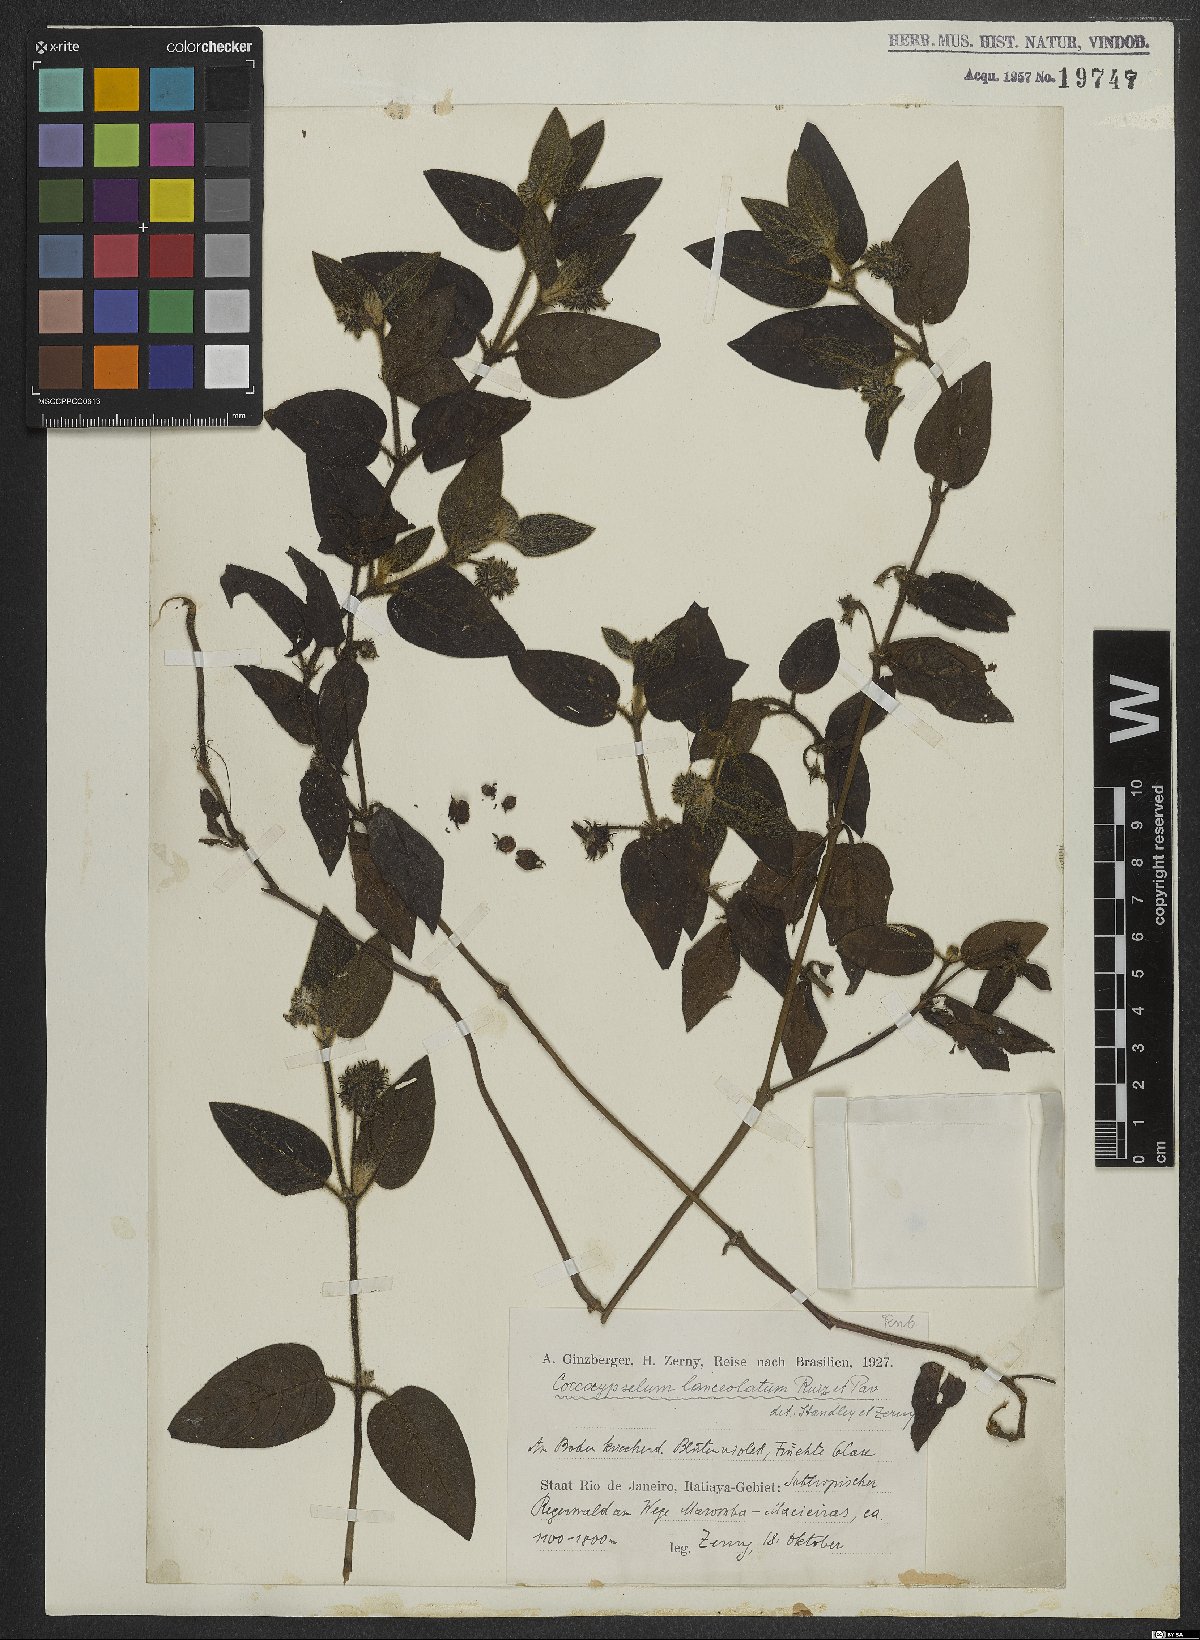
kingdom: Plantae
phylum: Tracheophyta
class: Magnoliopsida
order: Gentianales
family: Rubiaceae
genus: Coccocypselum
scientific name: Coccocypselum lanceolatum
